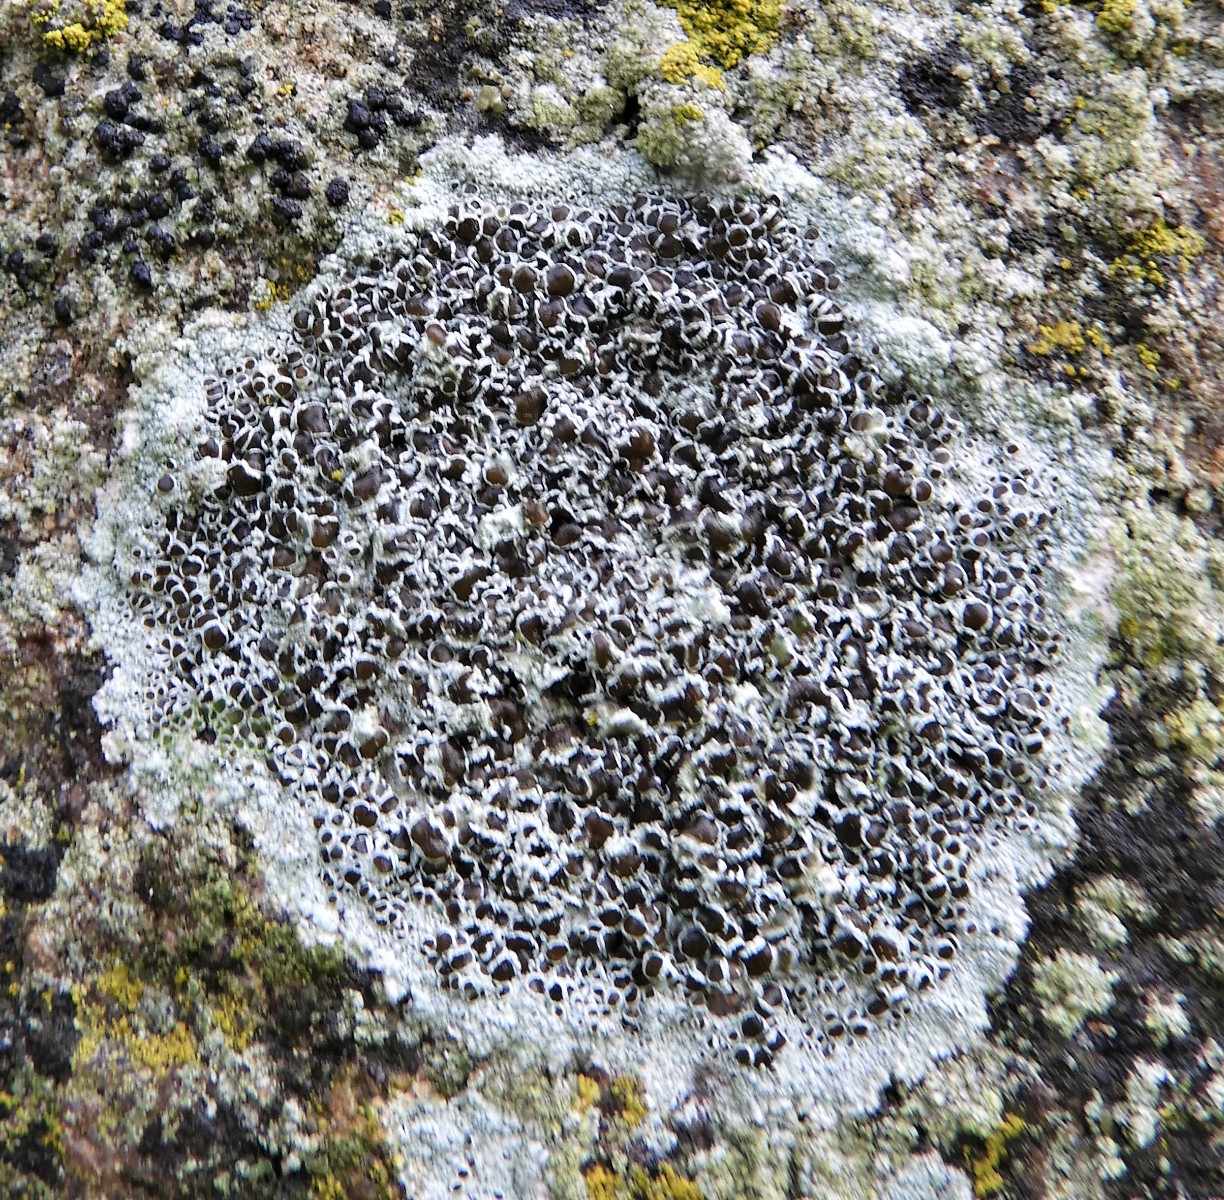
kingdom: Fungi
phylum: Ascomycota
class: Lecanoromycetes
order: Lecanorales
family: Lecanoraceae
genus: Lecanora
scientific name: Lecanora campestris
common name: mur-kantskivelav
